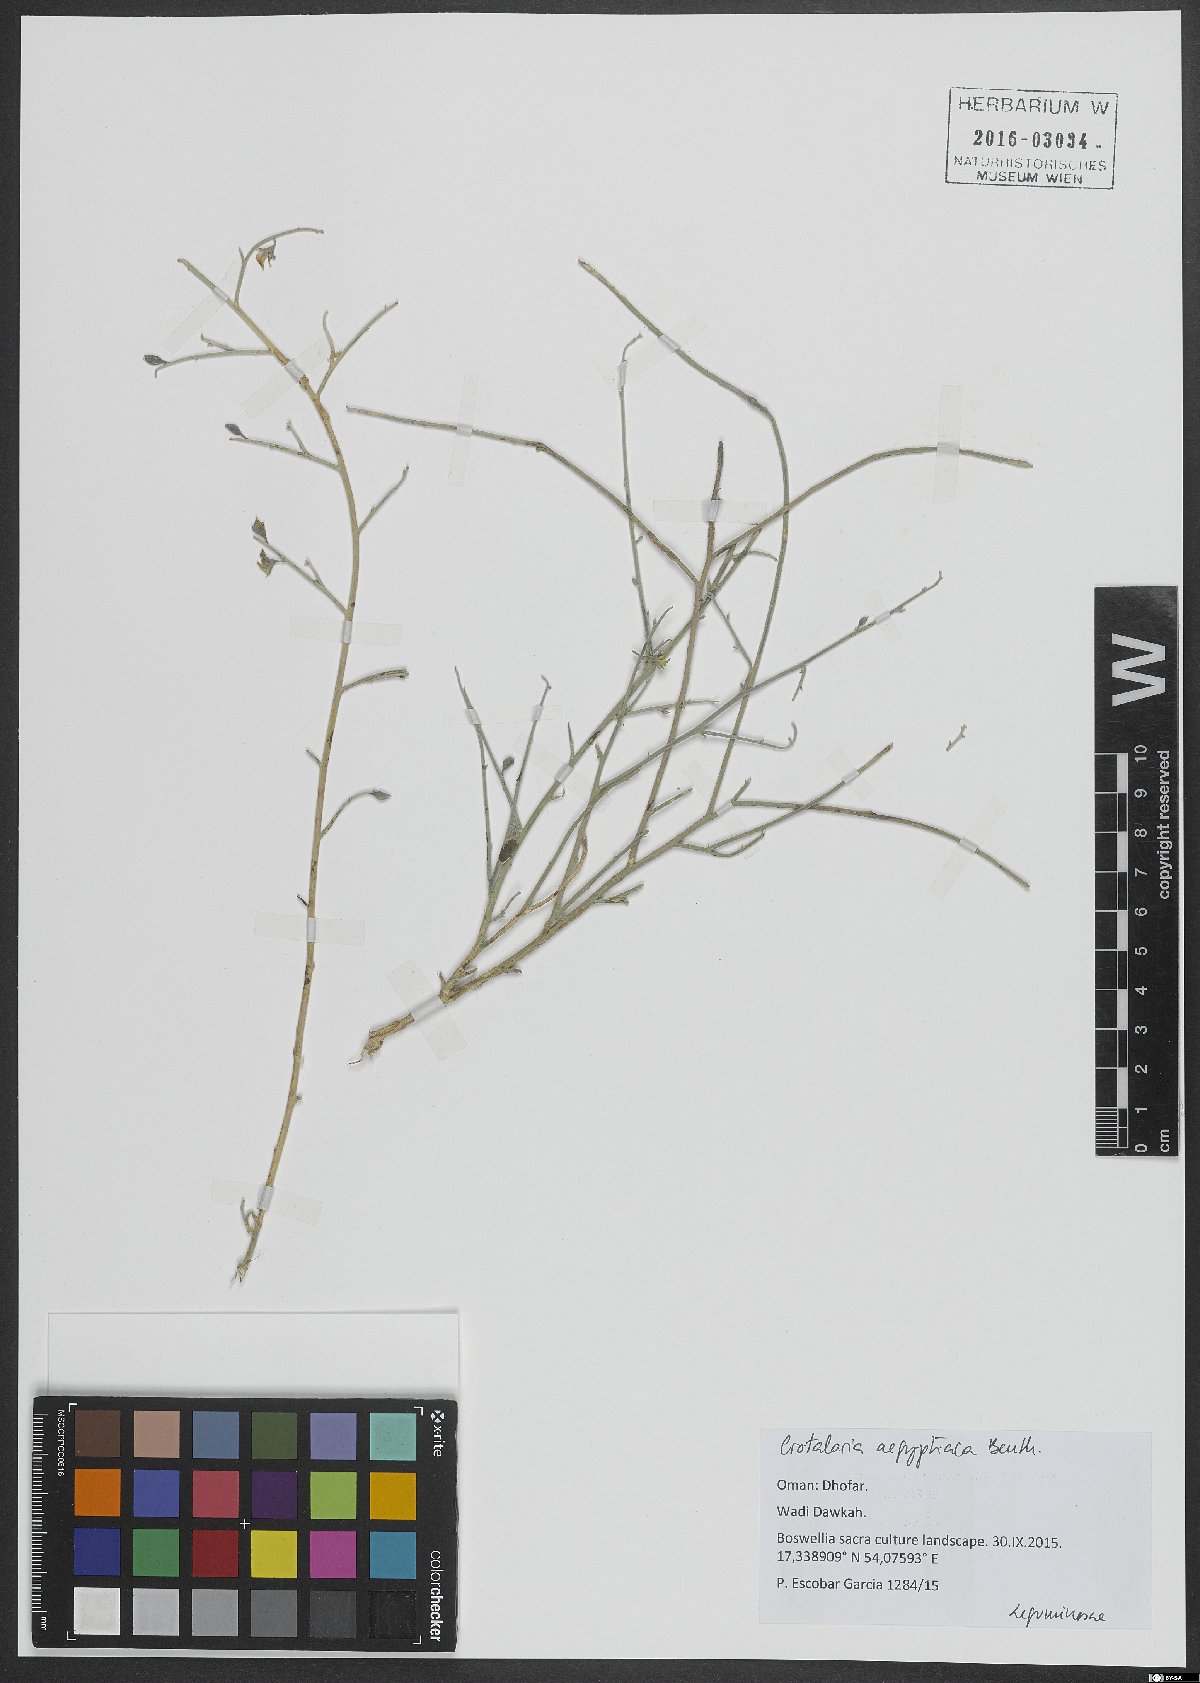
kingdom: Plantae
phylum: Tracheophyta
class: Magnoliopsida
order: Fabales
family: Fabaceae
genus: Crotalaria
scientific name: Crotalaria aegyptiaca
